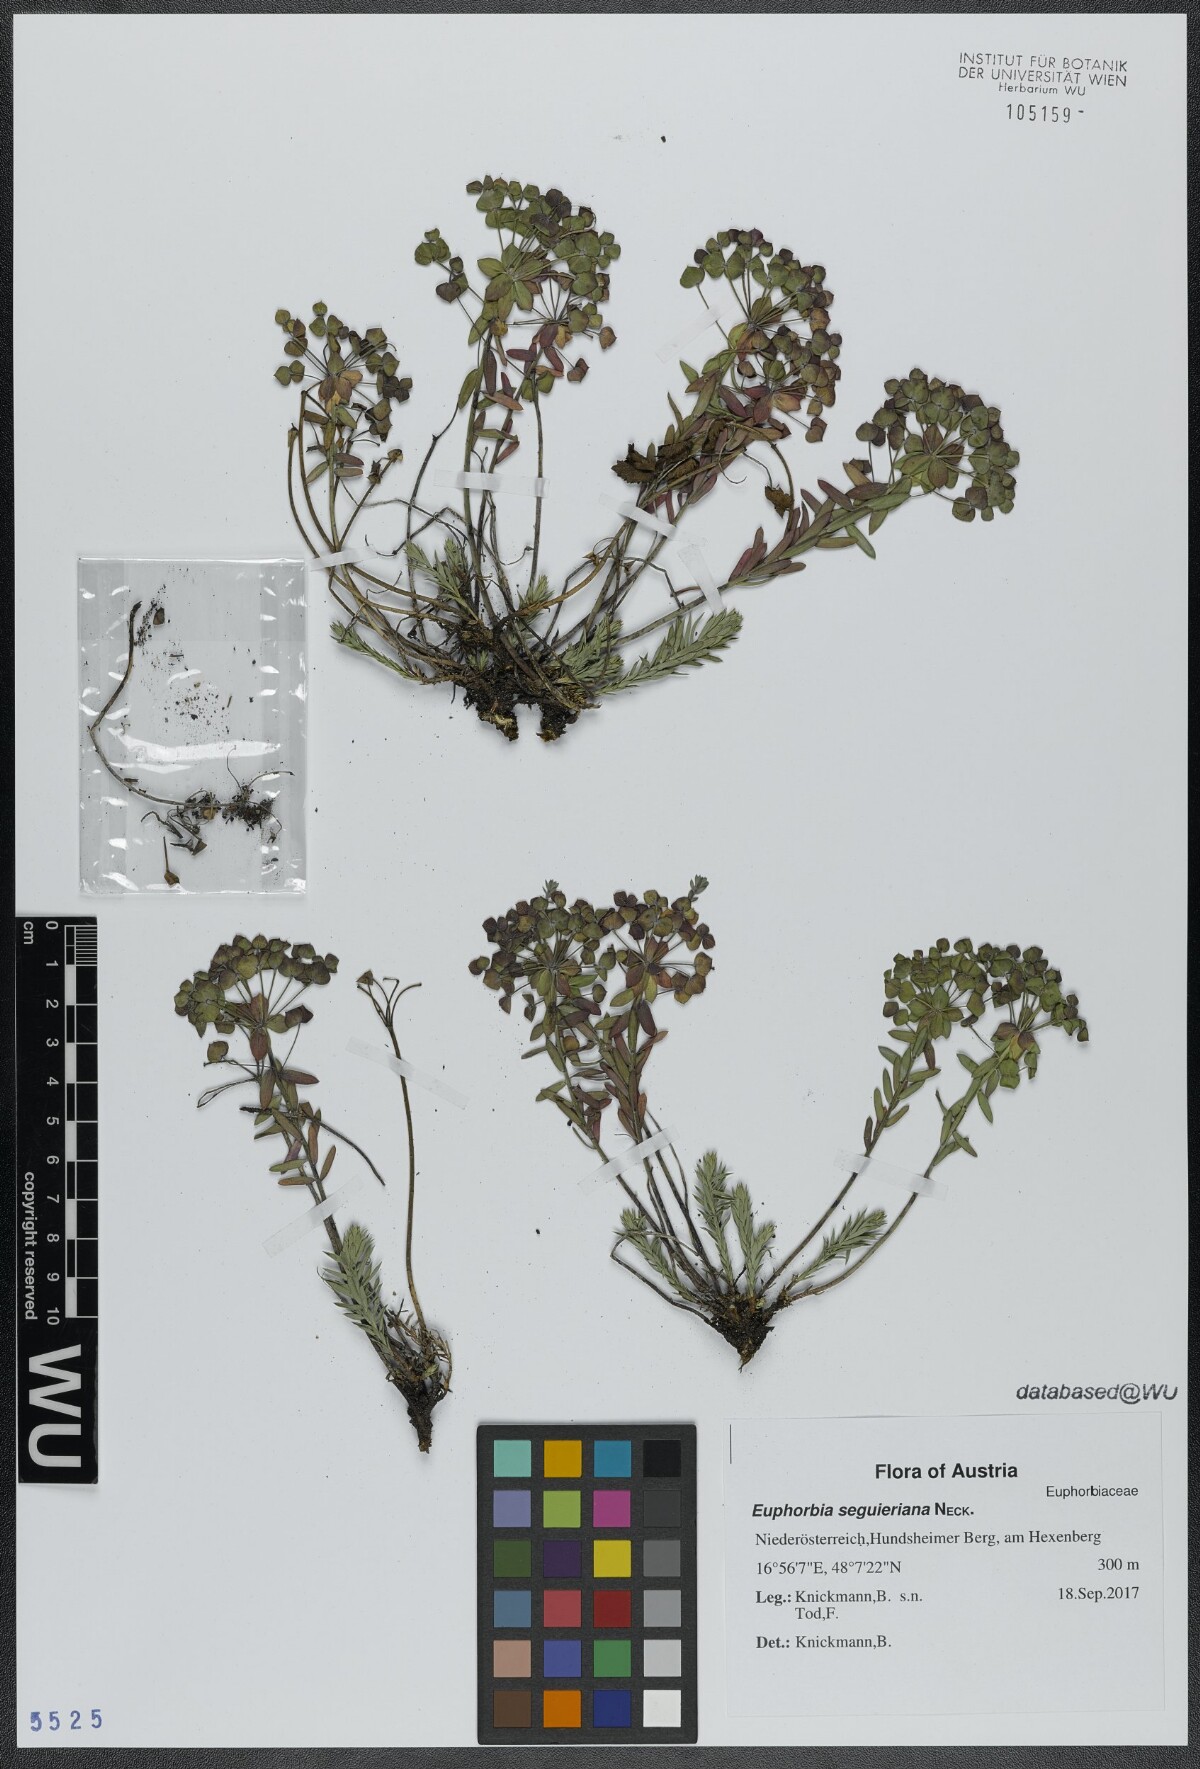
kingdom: Plantae
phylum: Tracheophyta
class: Magnoliopsida
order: Malpighiales
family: Euphorbiaceae
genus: Euphorbia
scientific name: Euphorbia seguieriana
